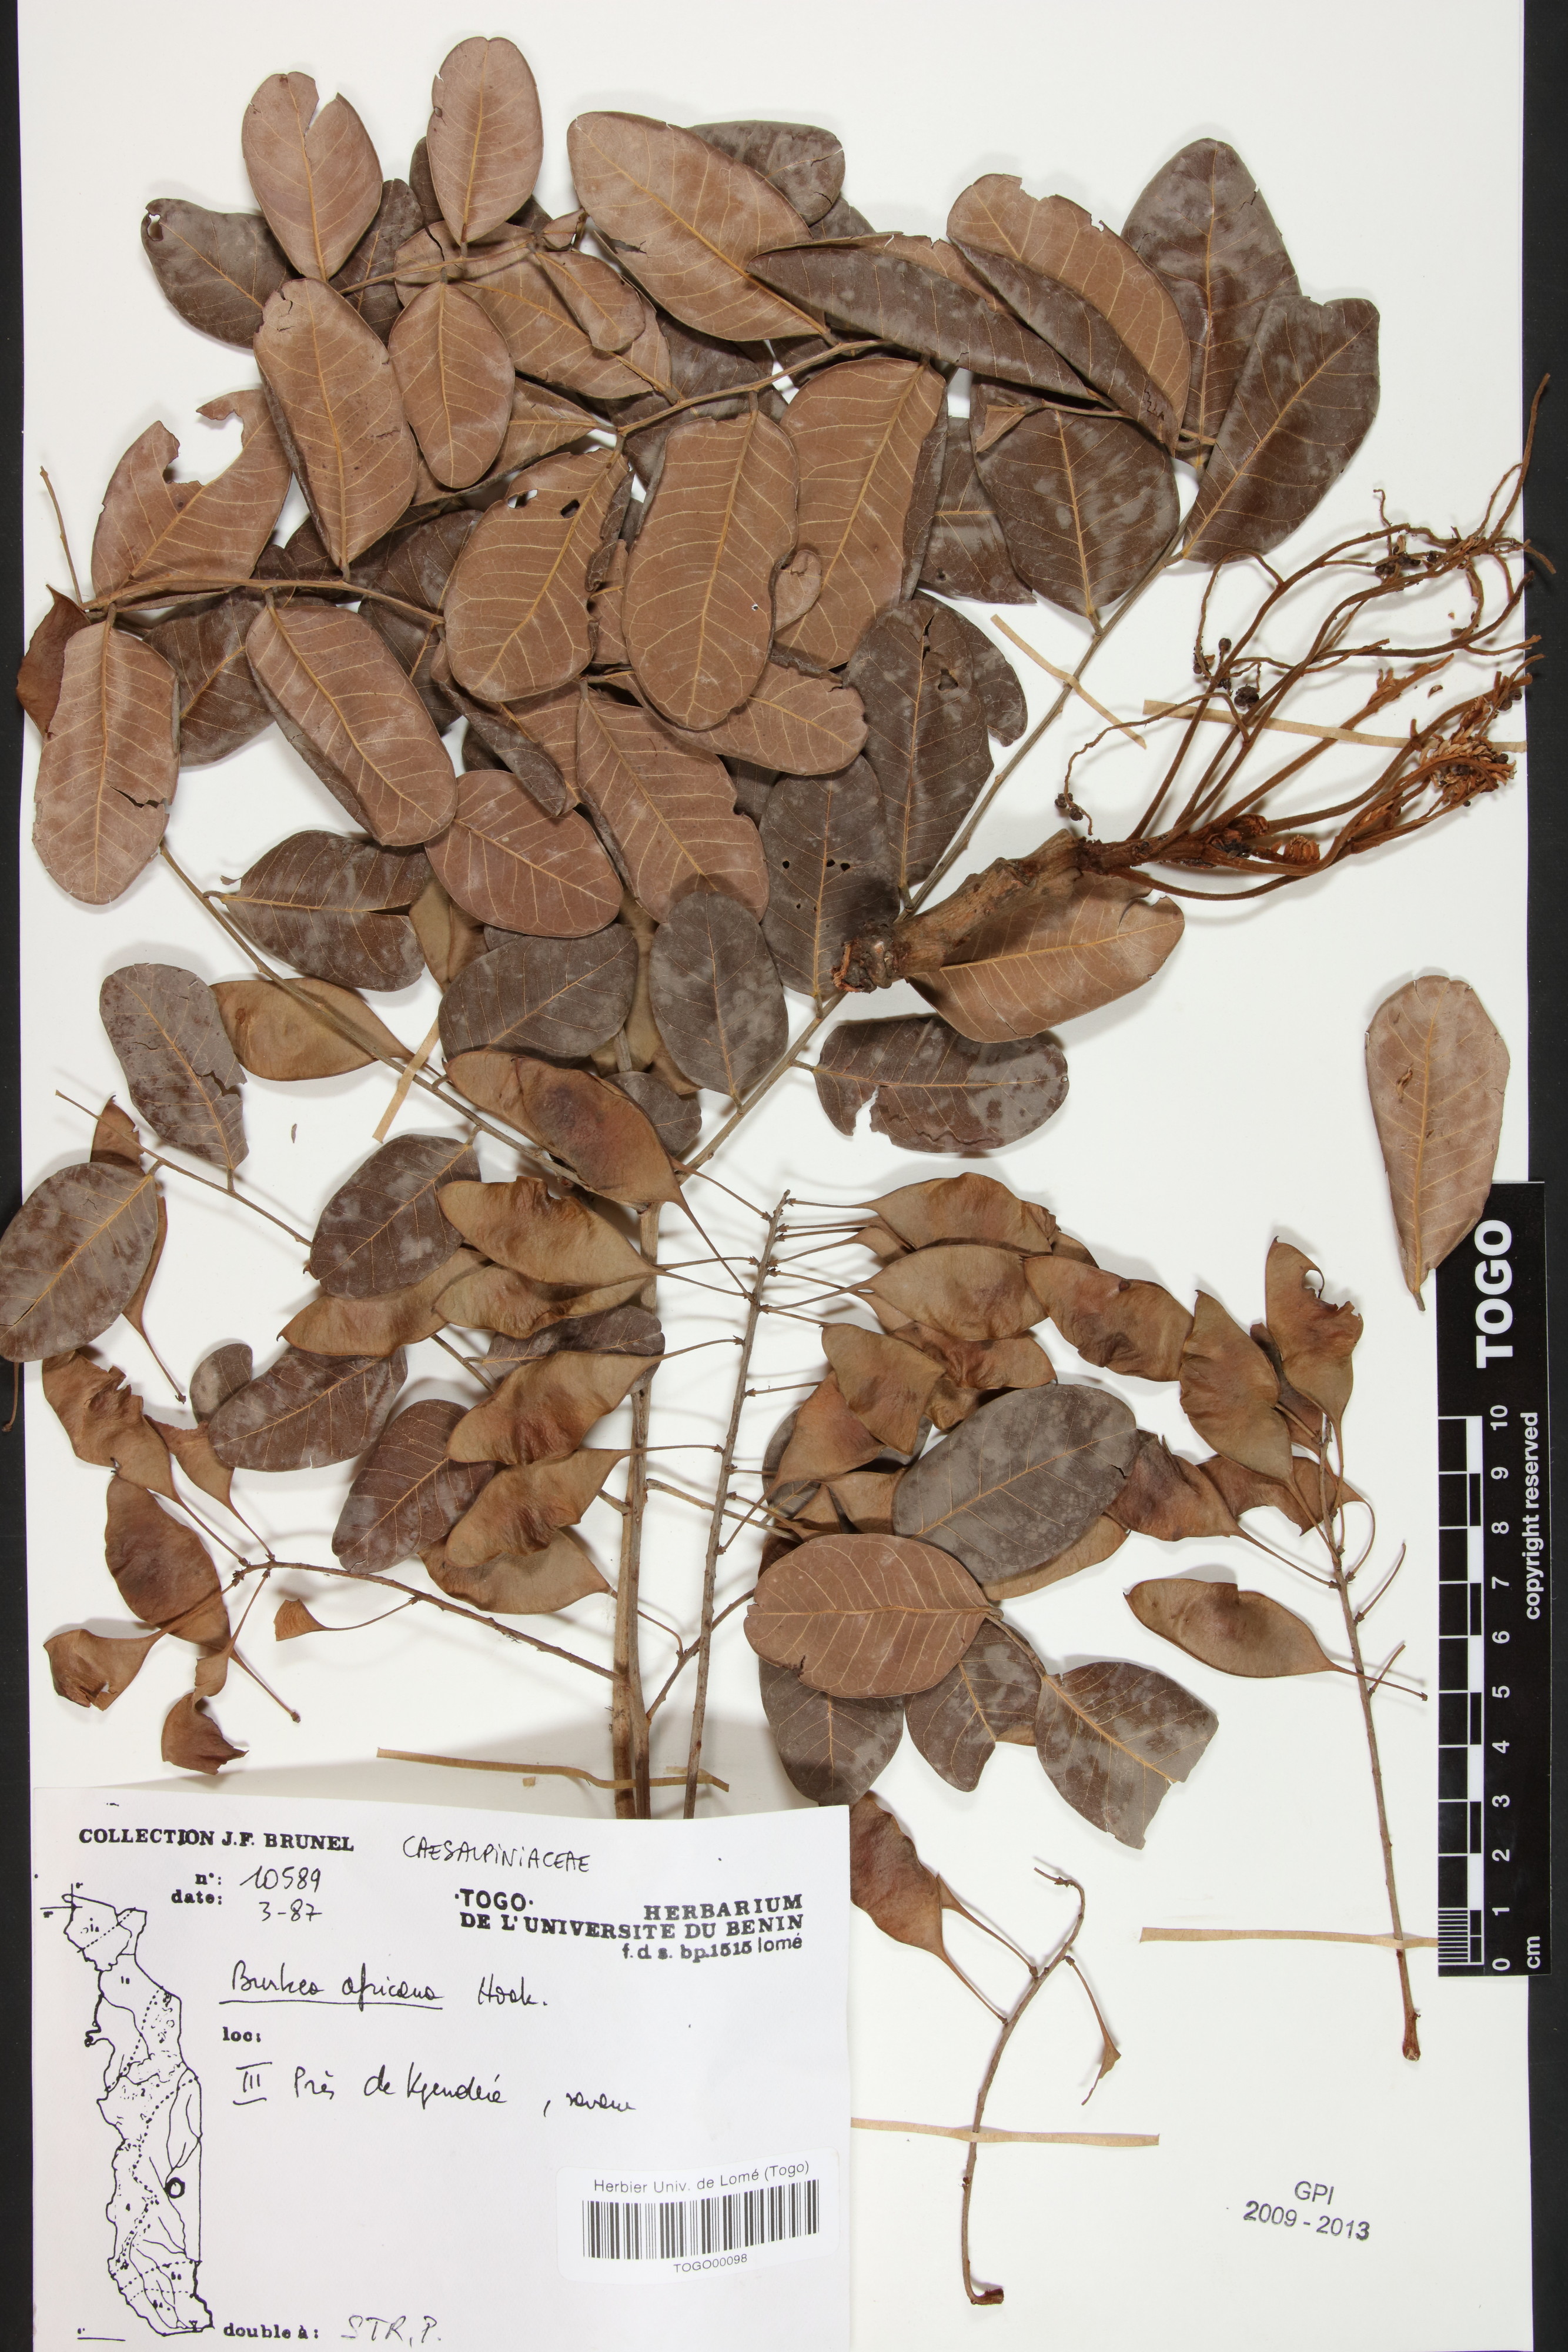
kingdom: Plantae
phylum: Tracheophyta
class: Magnoliopsida
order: Fabales
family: Fabaceae
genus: Burkea
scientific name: Burkea africana
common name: Mkalati tree
